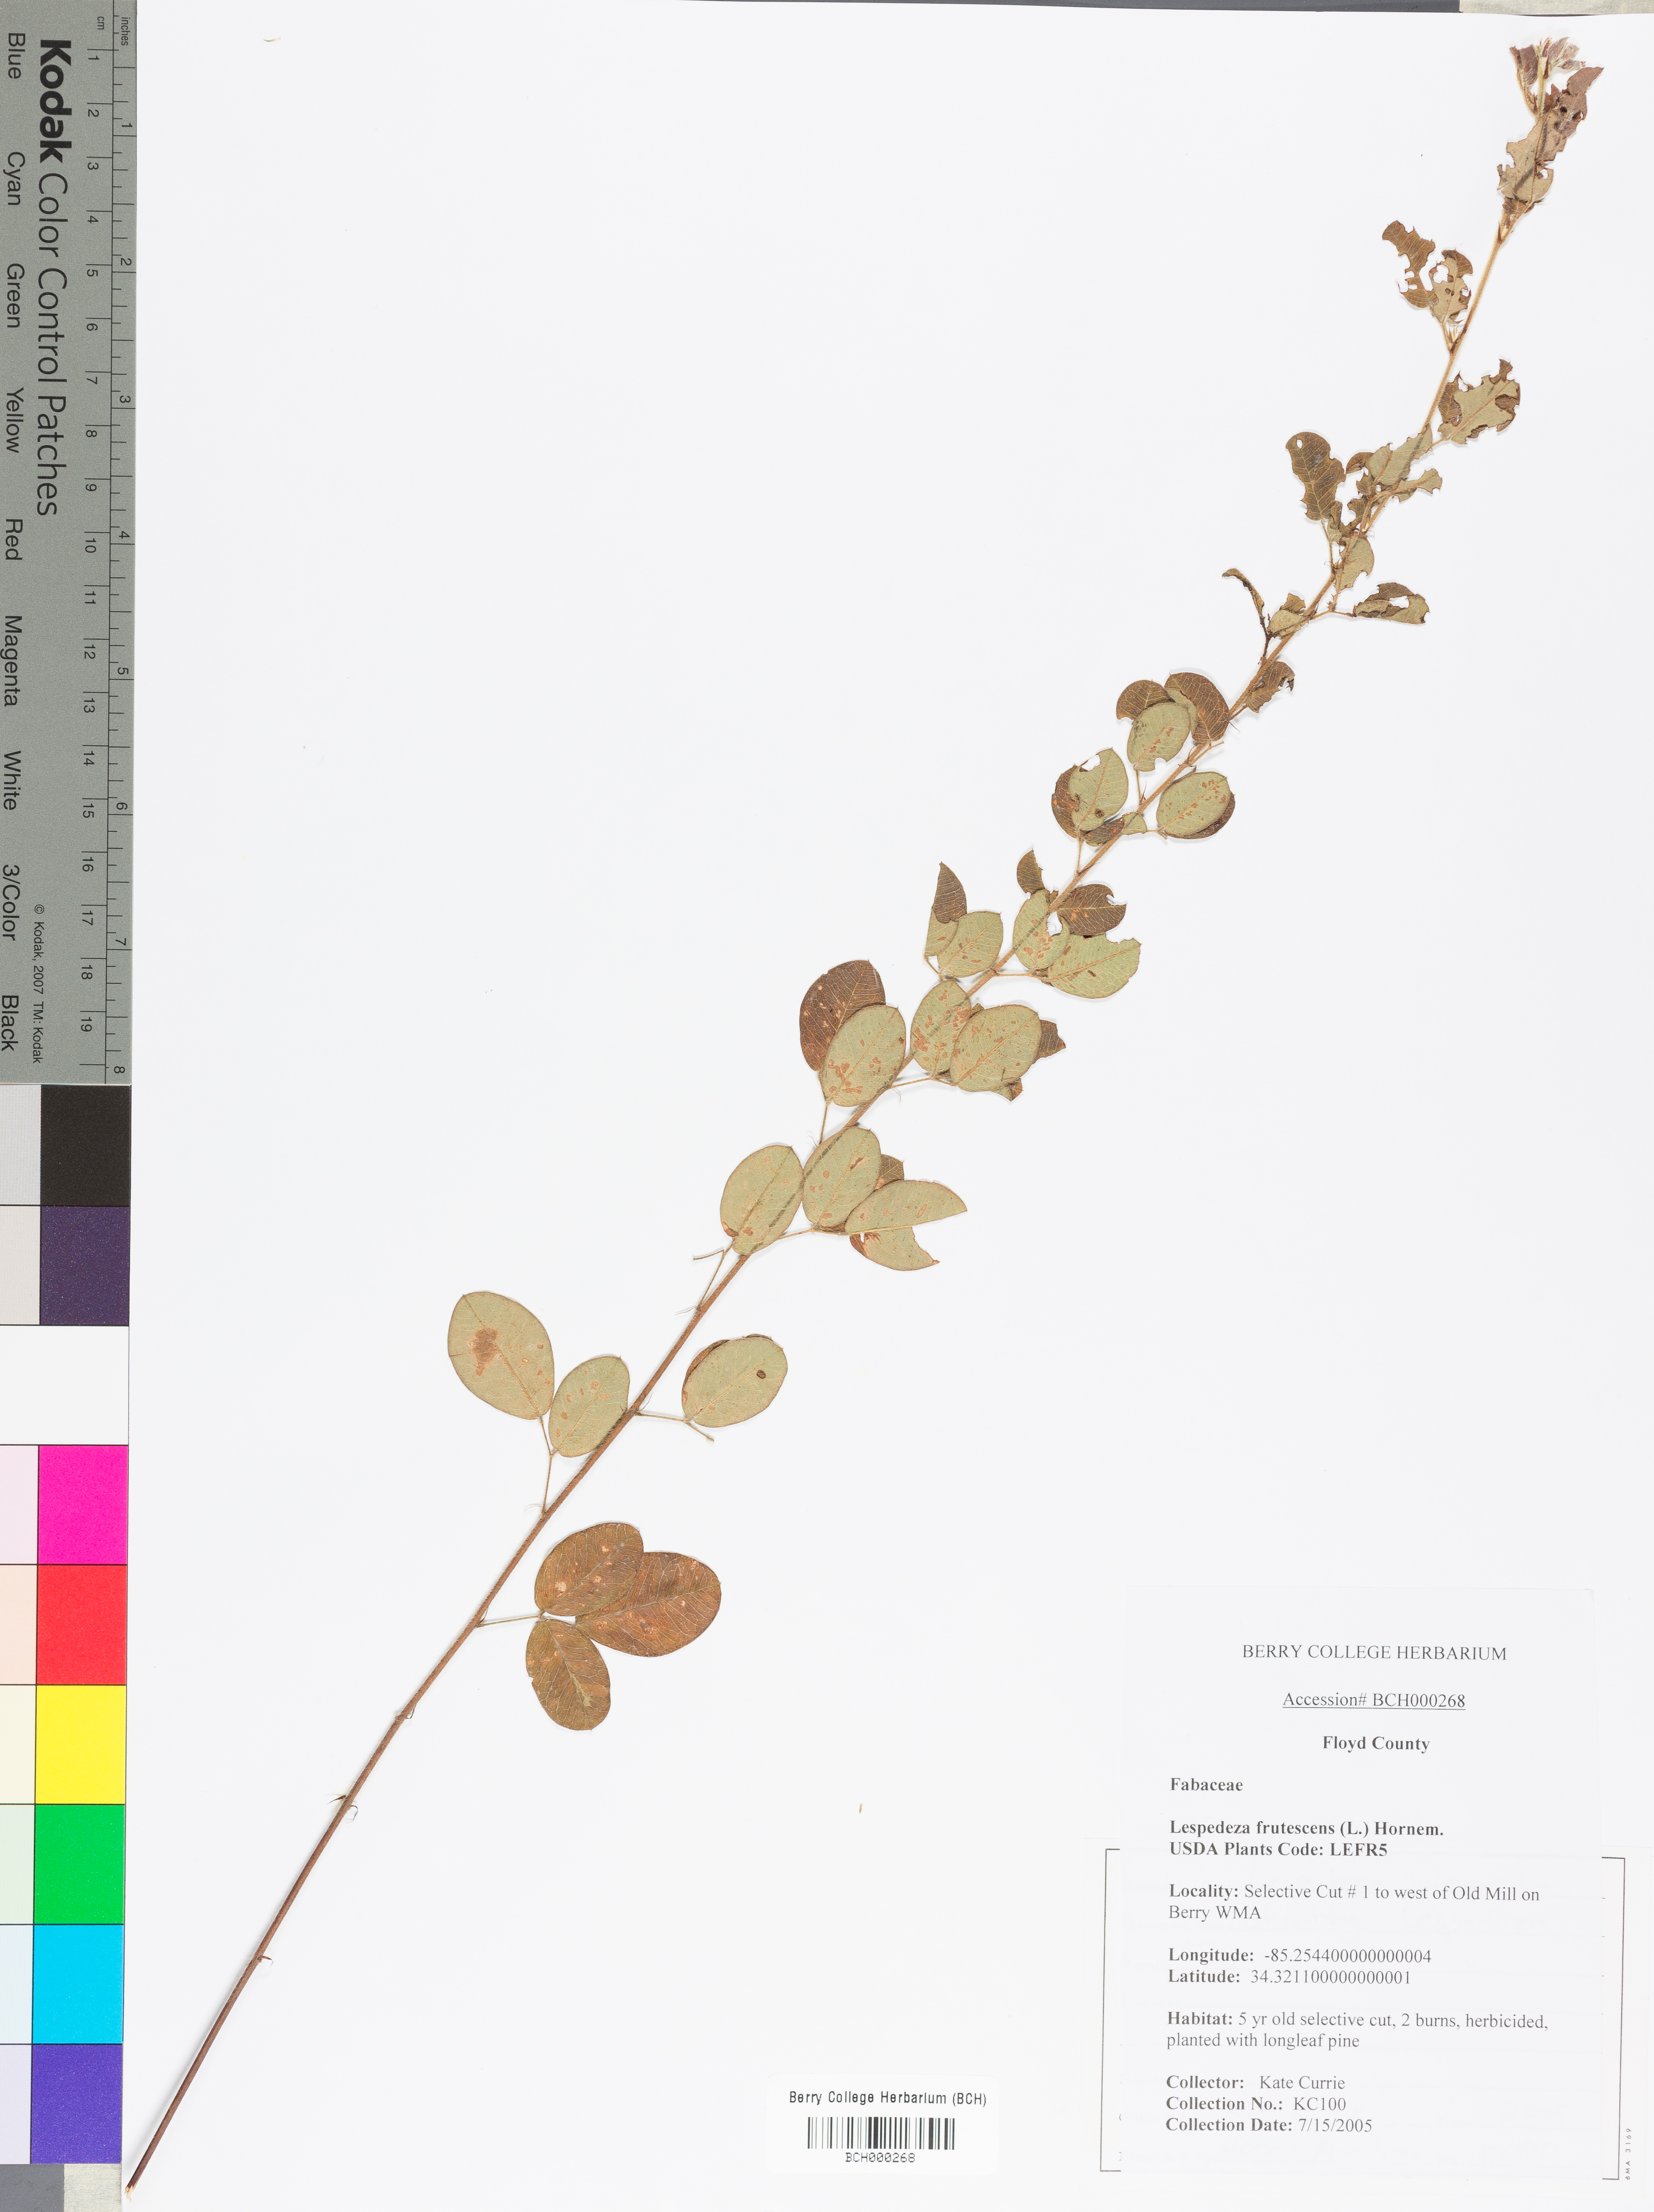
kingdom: Plantae
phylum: Tracheophyta
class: Magnoliopsida
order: Fabales
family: Fabaceae
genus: Lespedeza
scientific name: Lespedeza violacea
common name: Wand bush-clover
